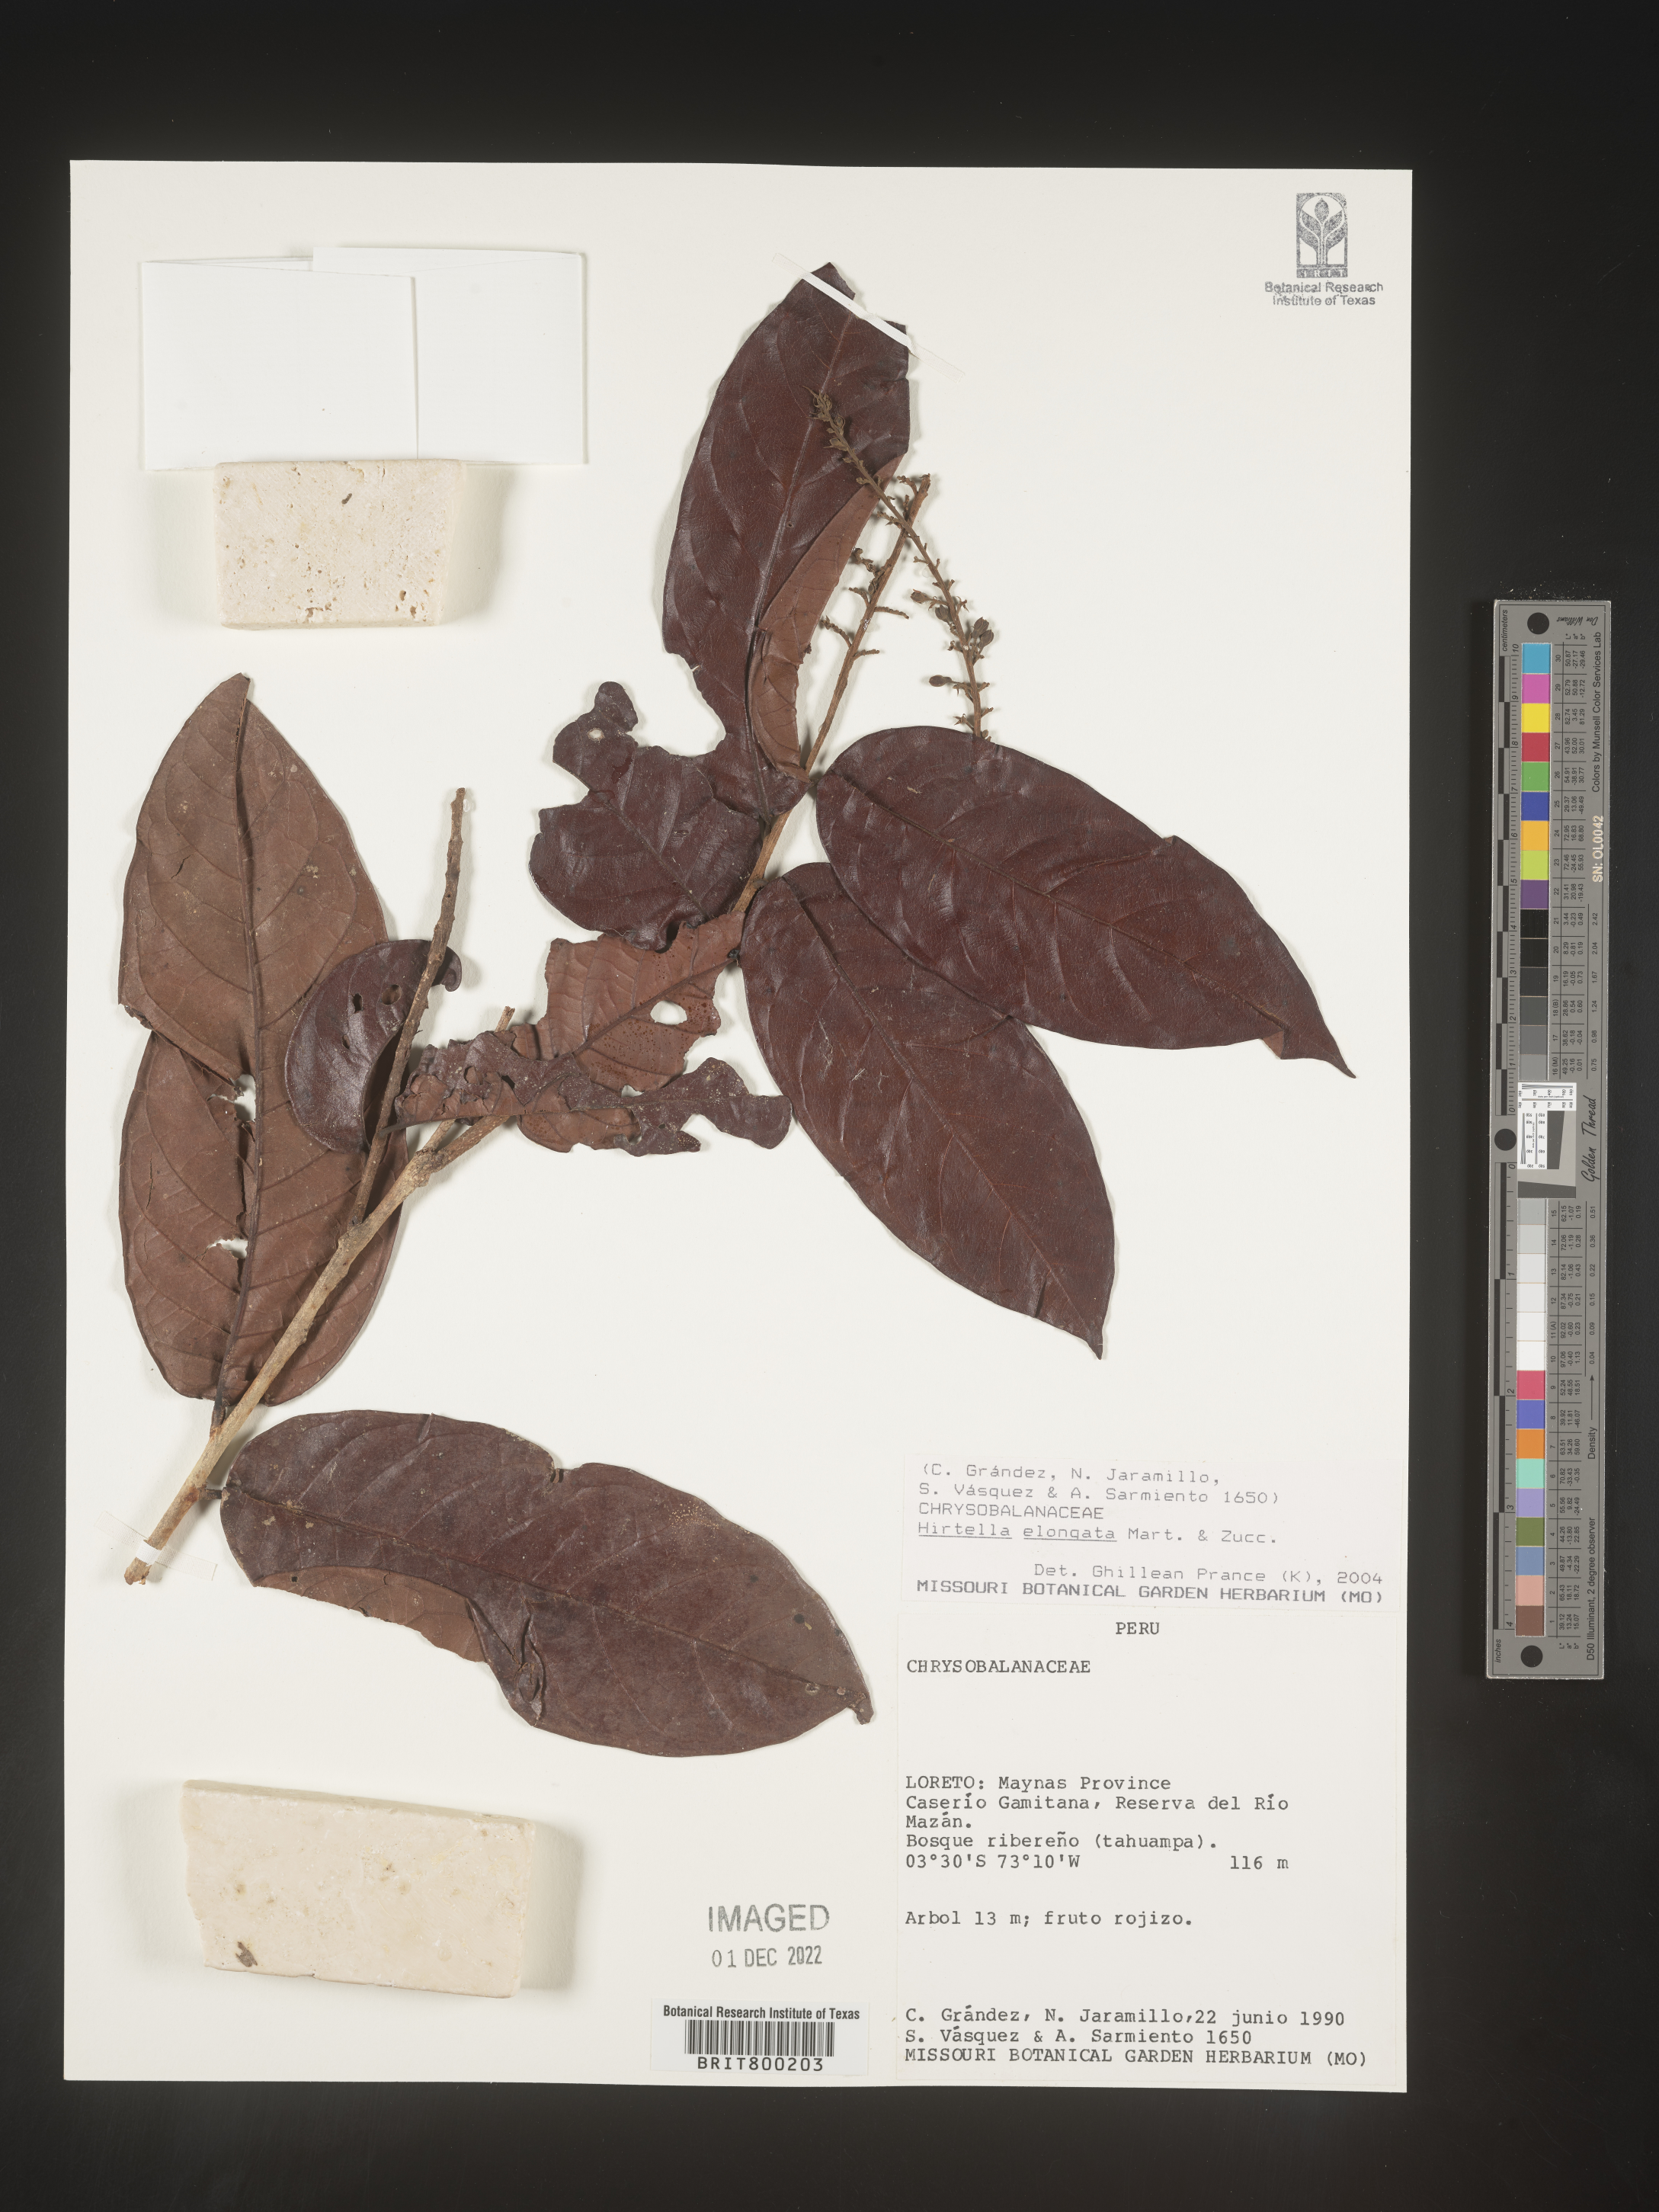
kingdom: Plantae
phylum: Tracheophyta
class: Magnoliopsida
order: Malpighiales
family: Chrysobalanaceae
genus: Hirtella
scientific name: Hirtella
